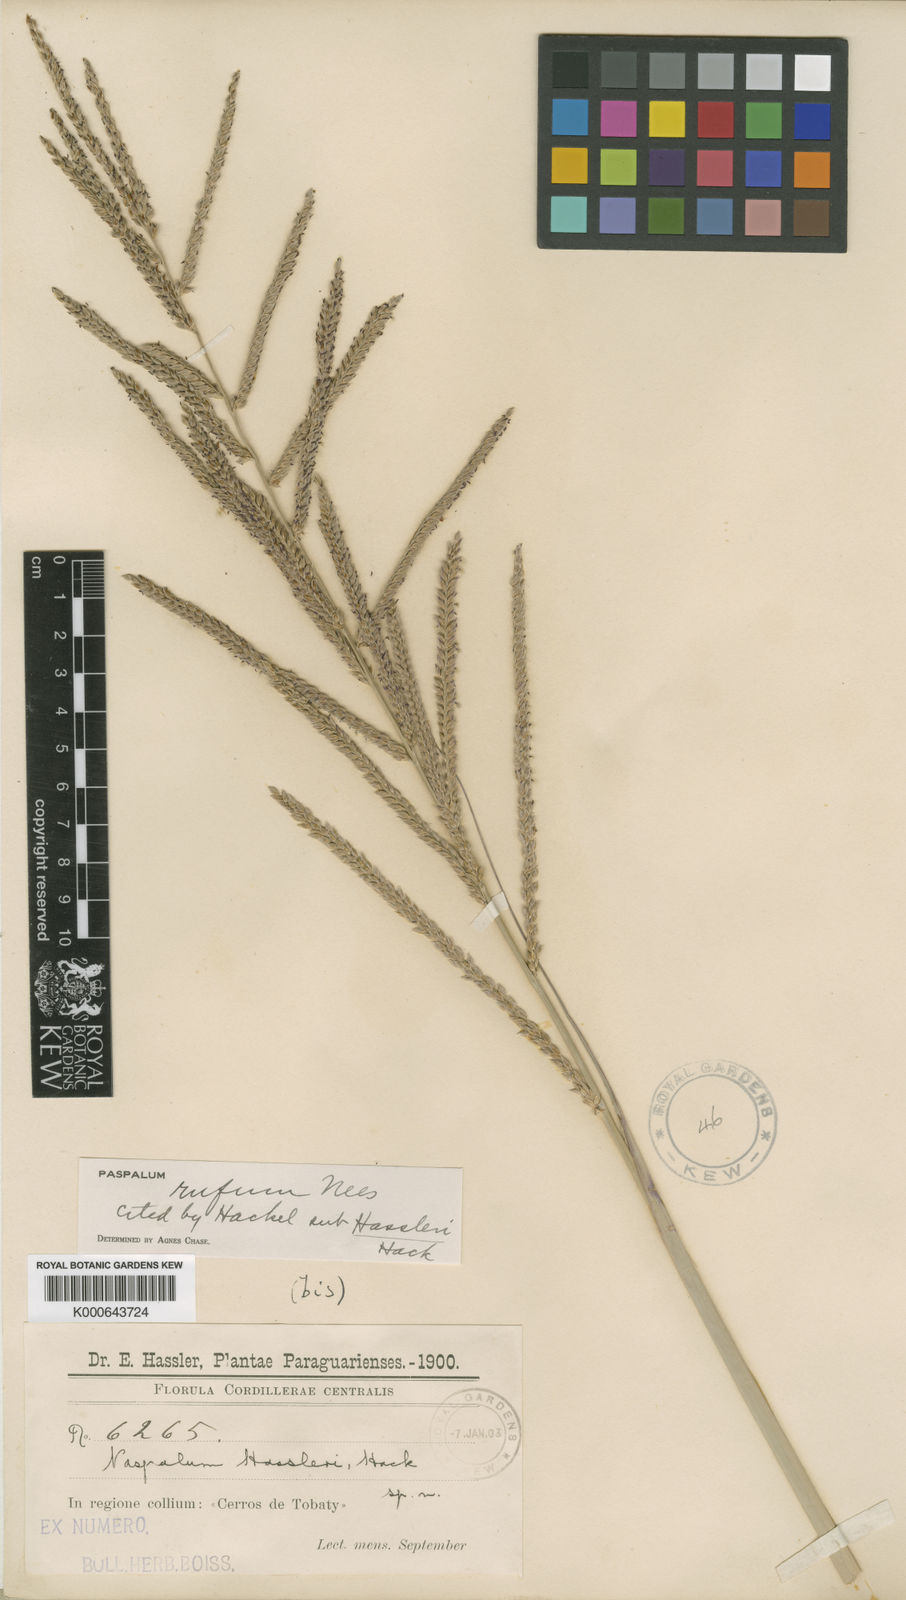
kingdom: Plantae
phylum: Tracheophyta
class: Liliopsida
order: Poales
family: Poaceae
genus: Paspalum
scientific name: Paspalum rufum
